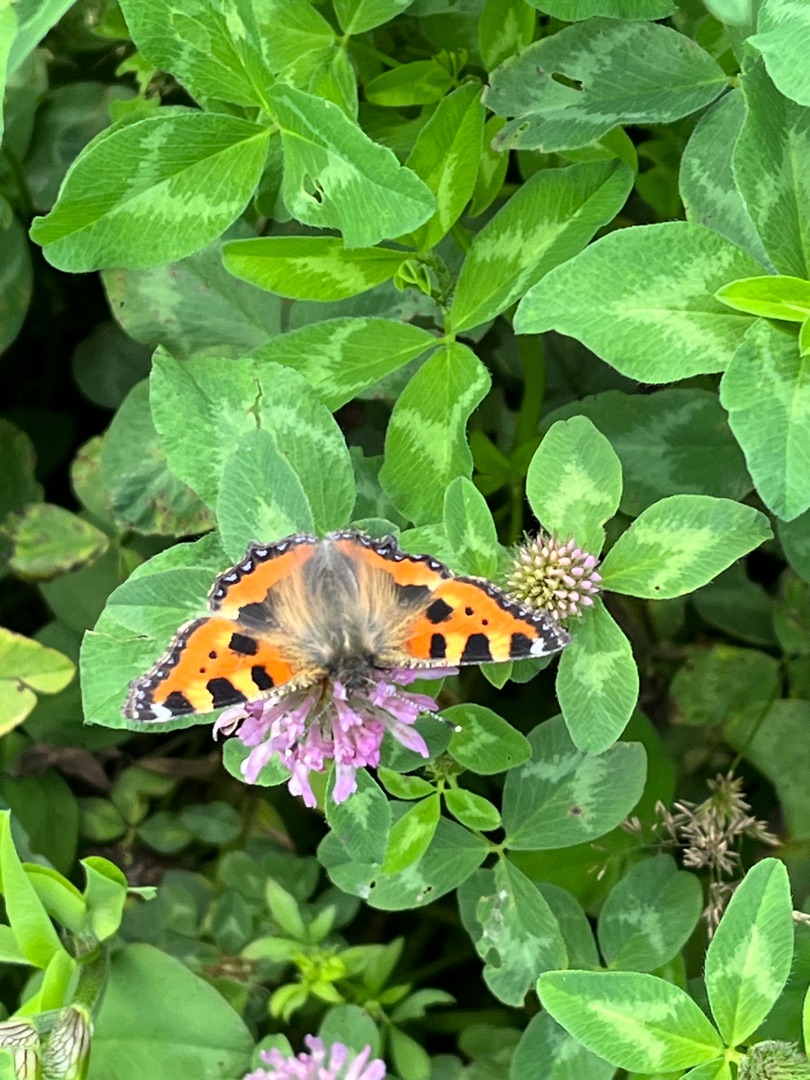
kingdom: Animalia
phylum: Arthropoda
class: Insecta
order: Lepidoptera
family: Nymphalidae
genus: Aglais
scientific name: Aglais urticae
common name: Nældens takvinge
